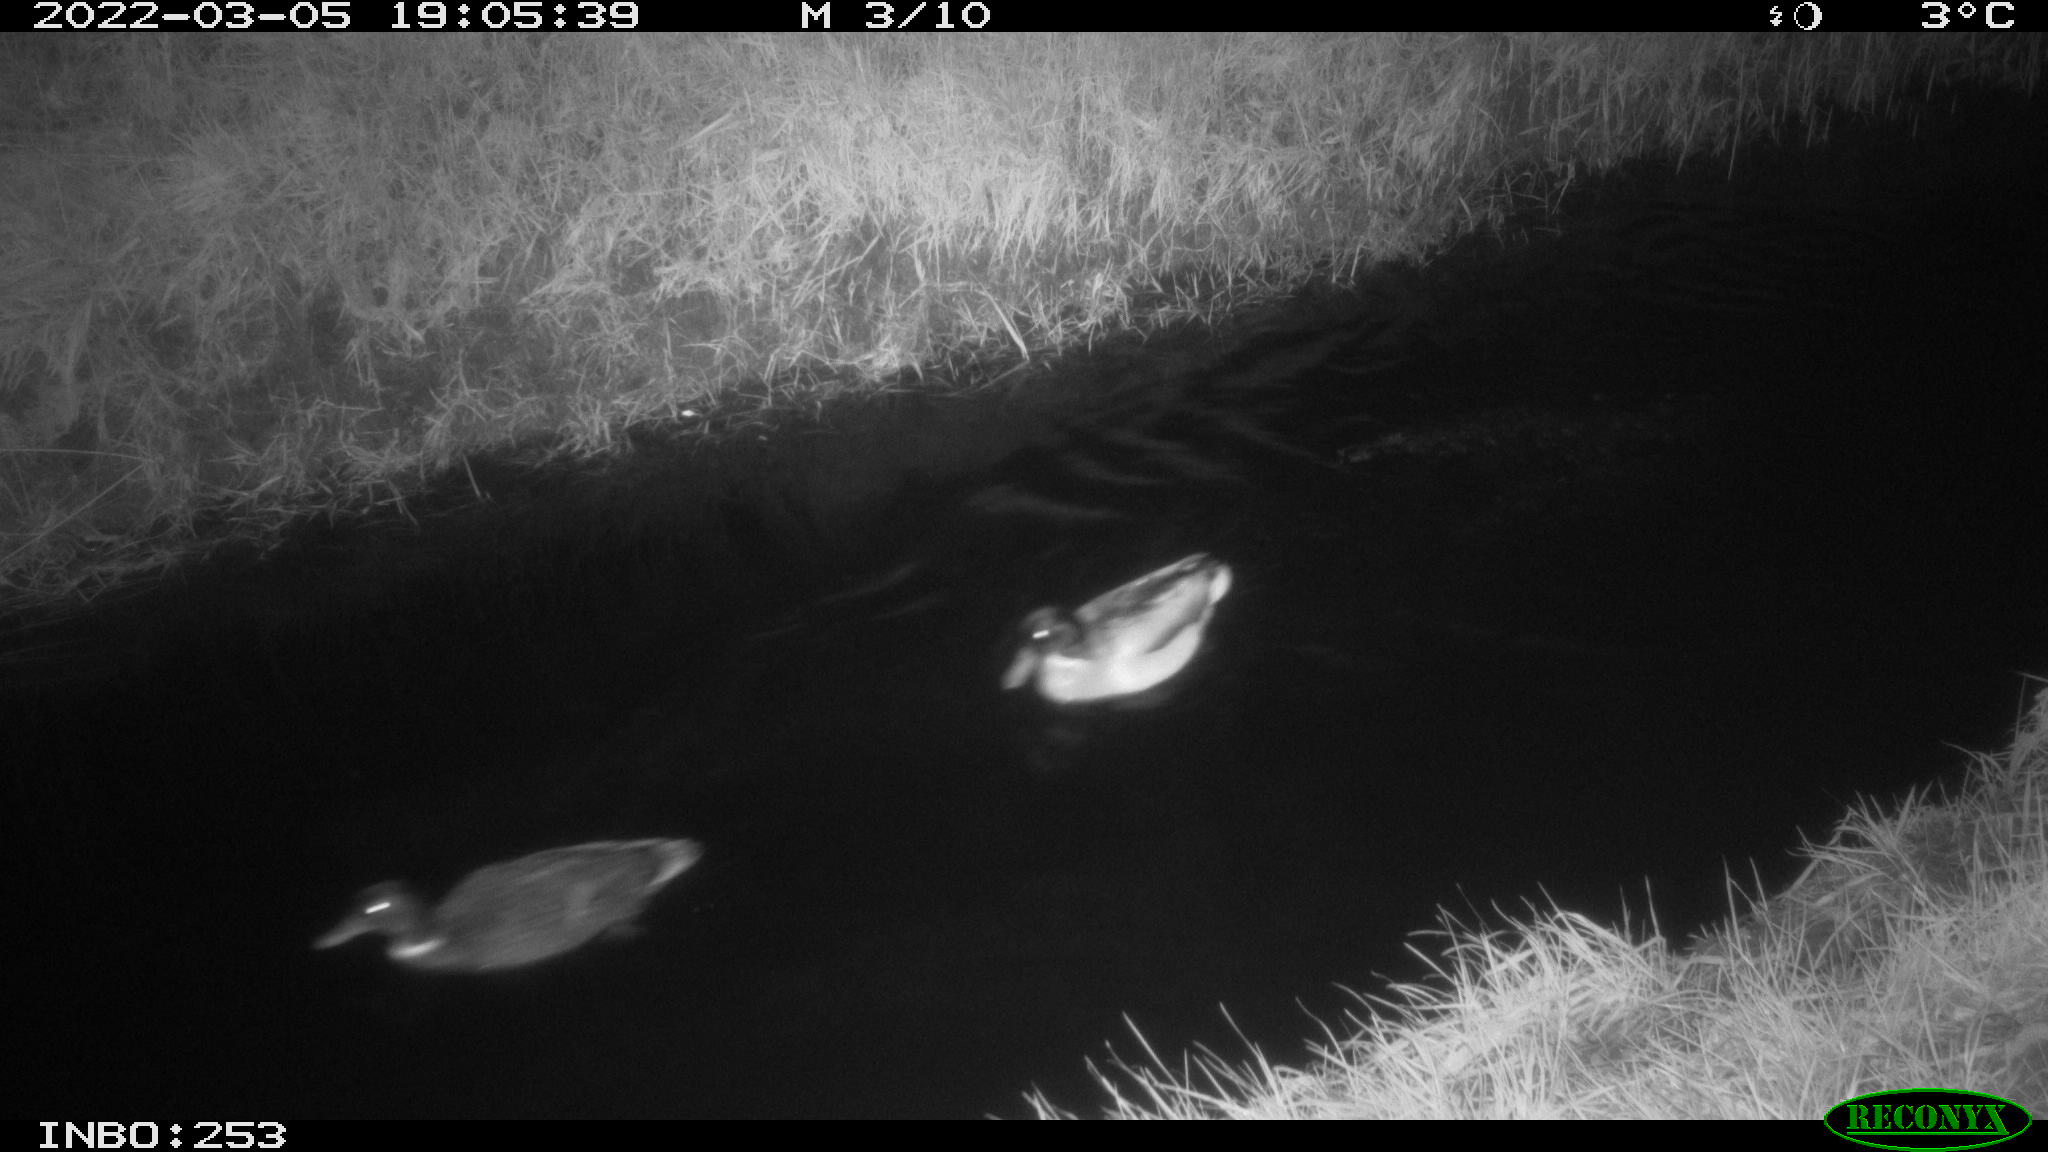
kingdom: Animalia
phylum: Chordata
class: Aves
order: Anseriformes
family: Anatidae
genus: Anas
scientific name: Anas platyrhynchos
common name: Mallard
